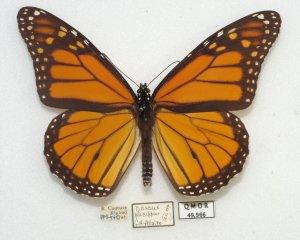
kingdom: Animalia
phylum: Arthropoda
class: Insecta
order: Lepidoptera
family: Nymphalidae
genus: Danaus
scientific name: Danaus plexippus
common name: Monarch
